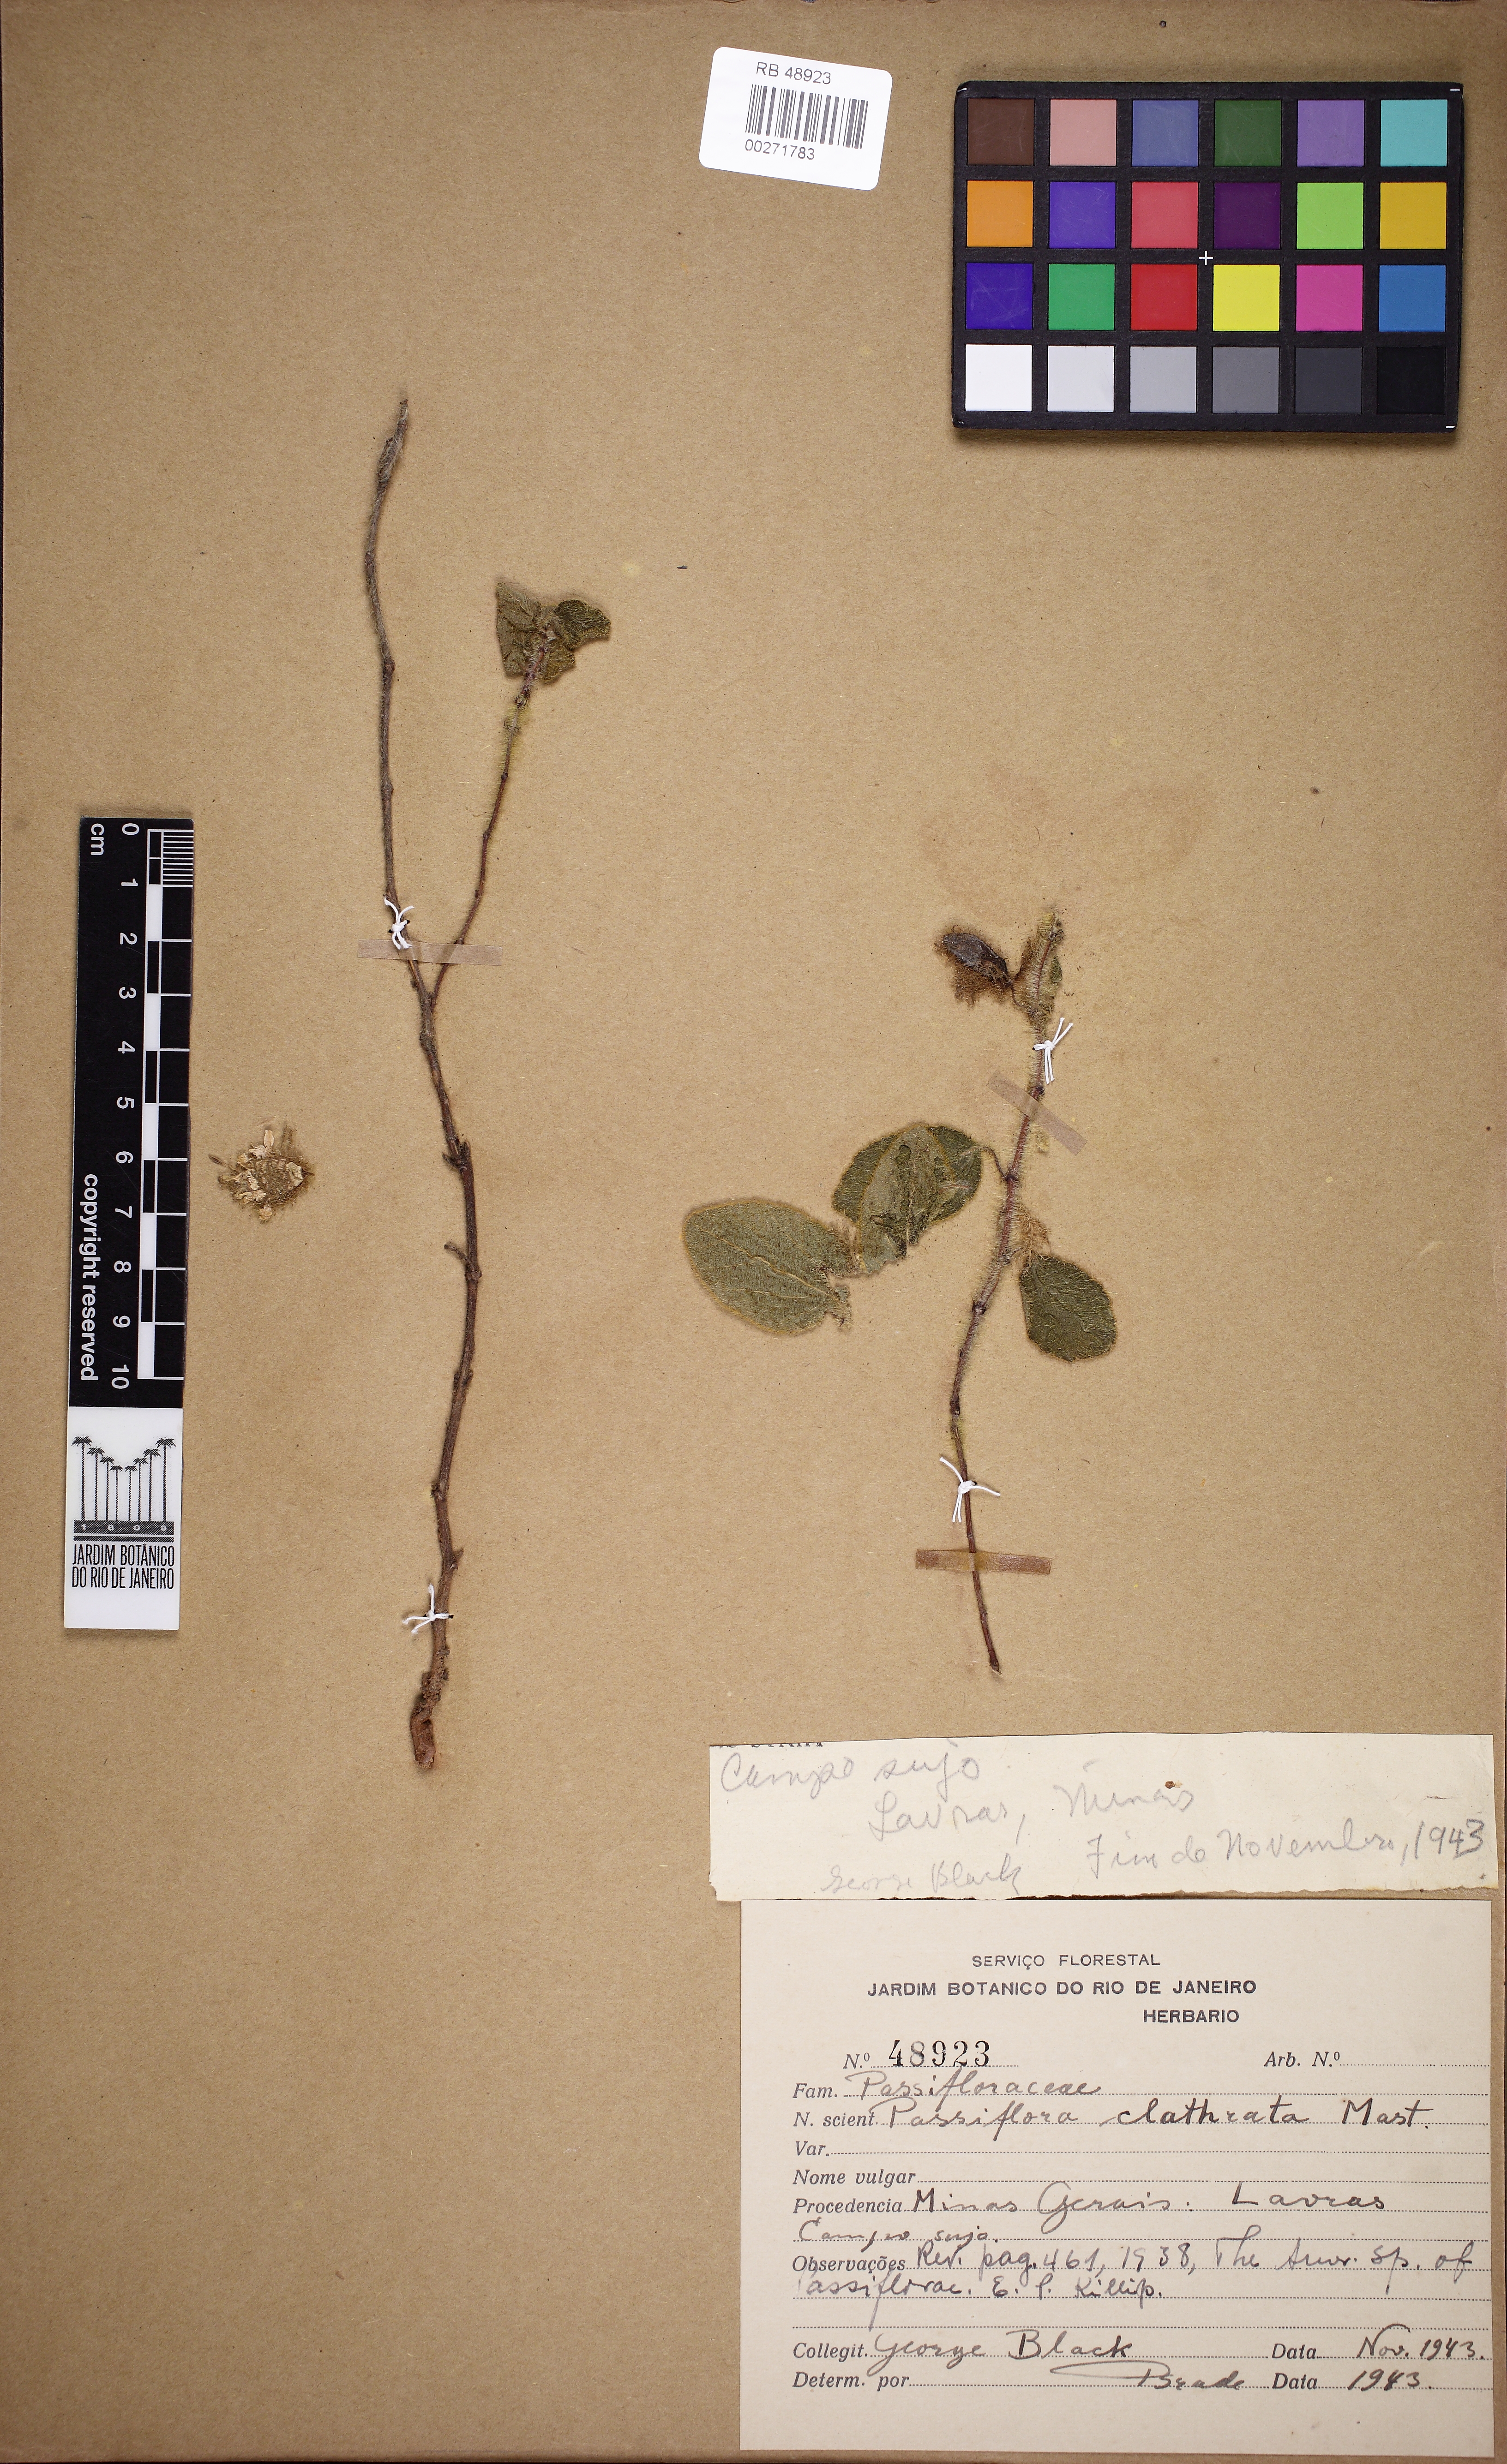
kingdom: Plantae
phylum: Tracheophyta
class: Magnoliopsida
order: Malpighiales
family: Passifloraceae
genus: Passiflora
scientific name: Passiflora clathrata
